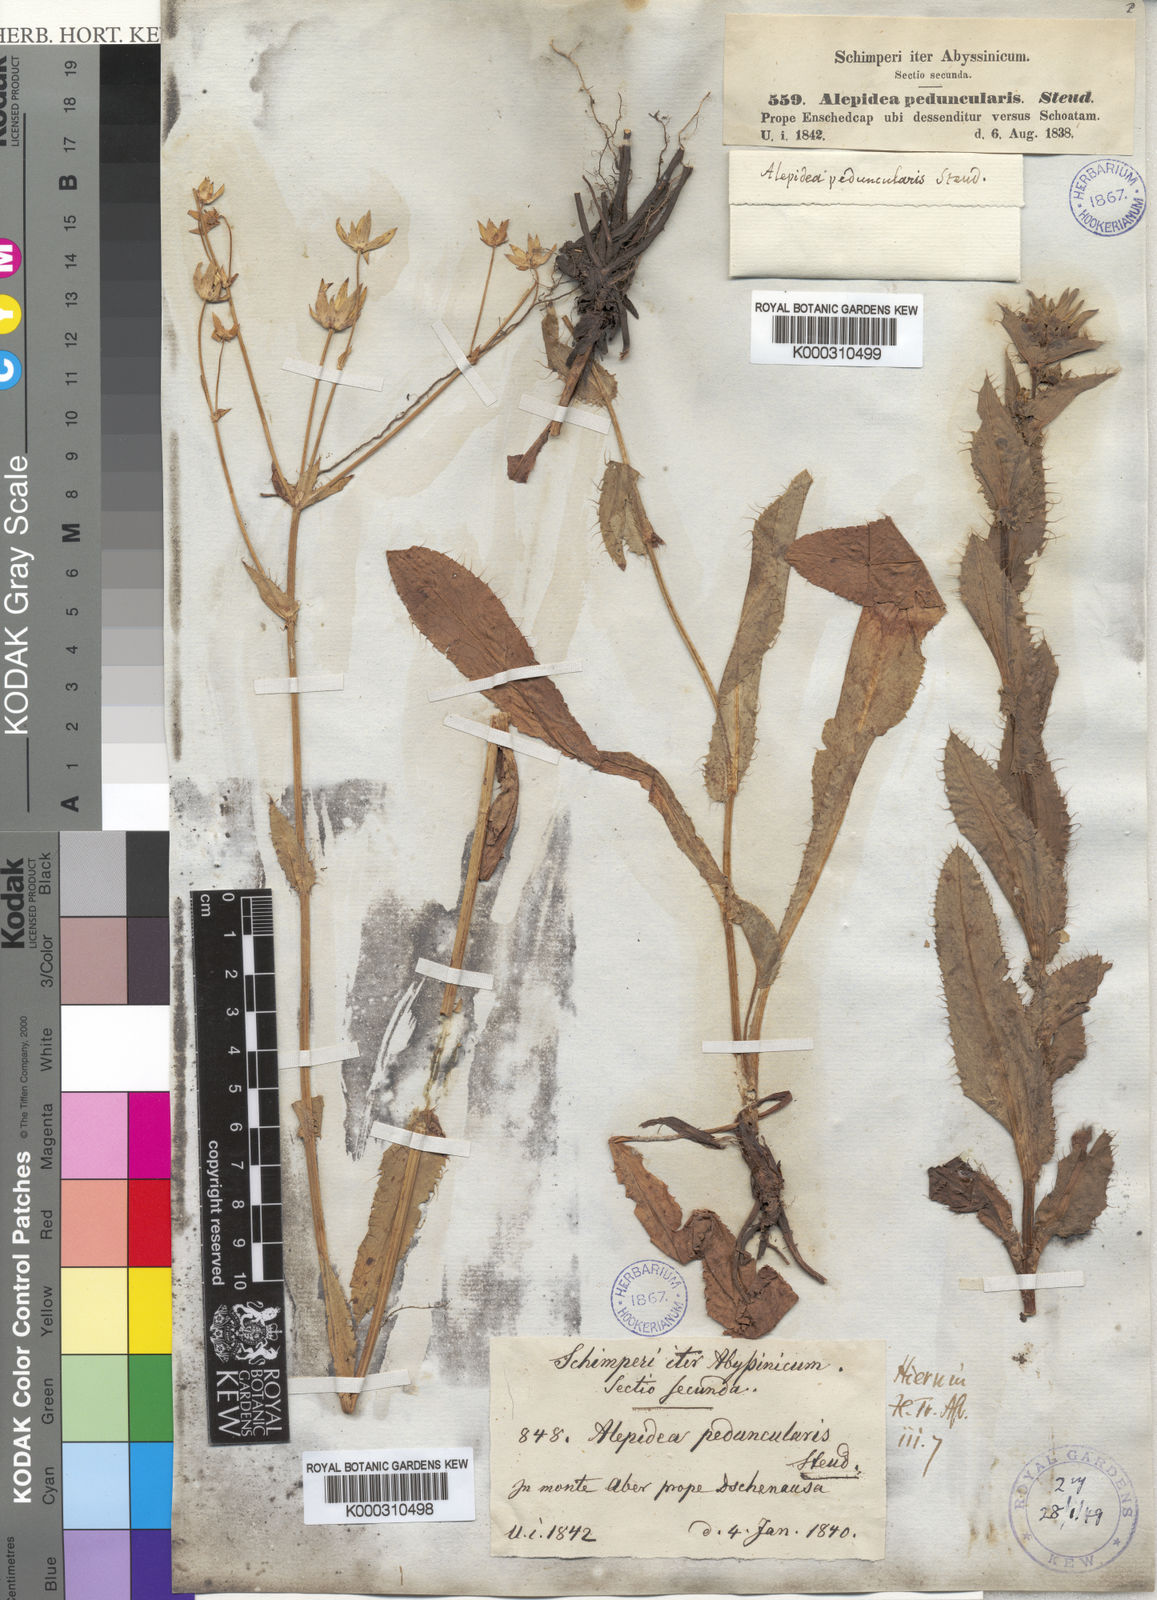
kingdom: Plantae
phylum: Tracheophyta
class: Magnoliopsida
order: Apiales
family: Apiaceae
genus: Alepidea
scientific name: Alepidea
